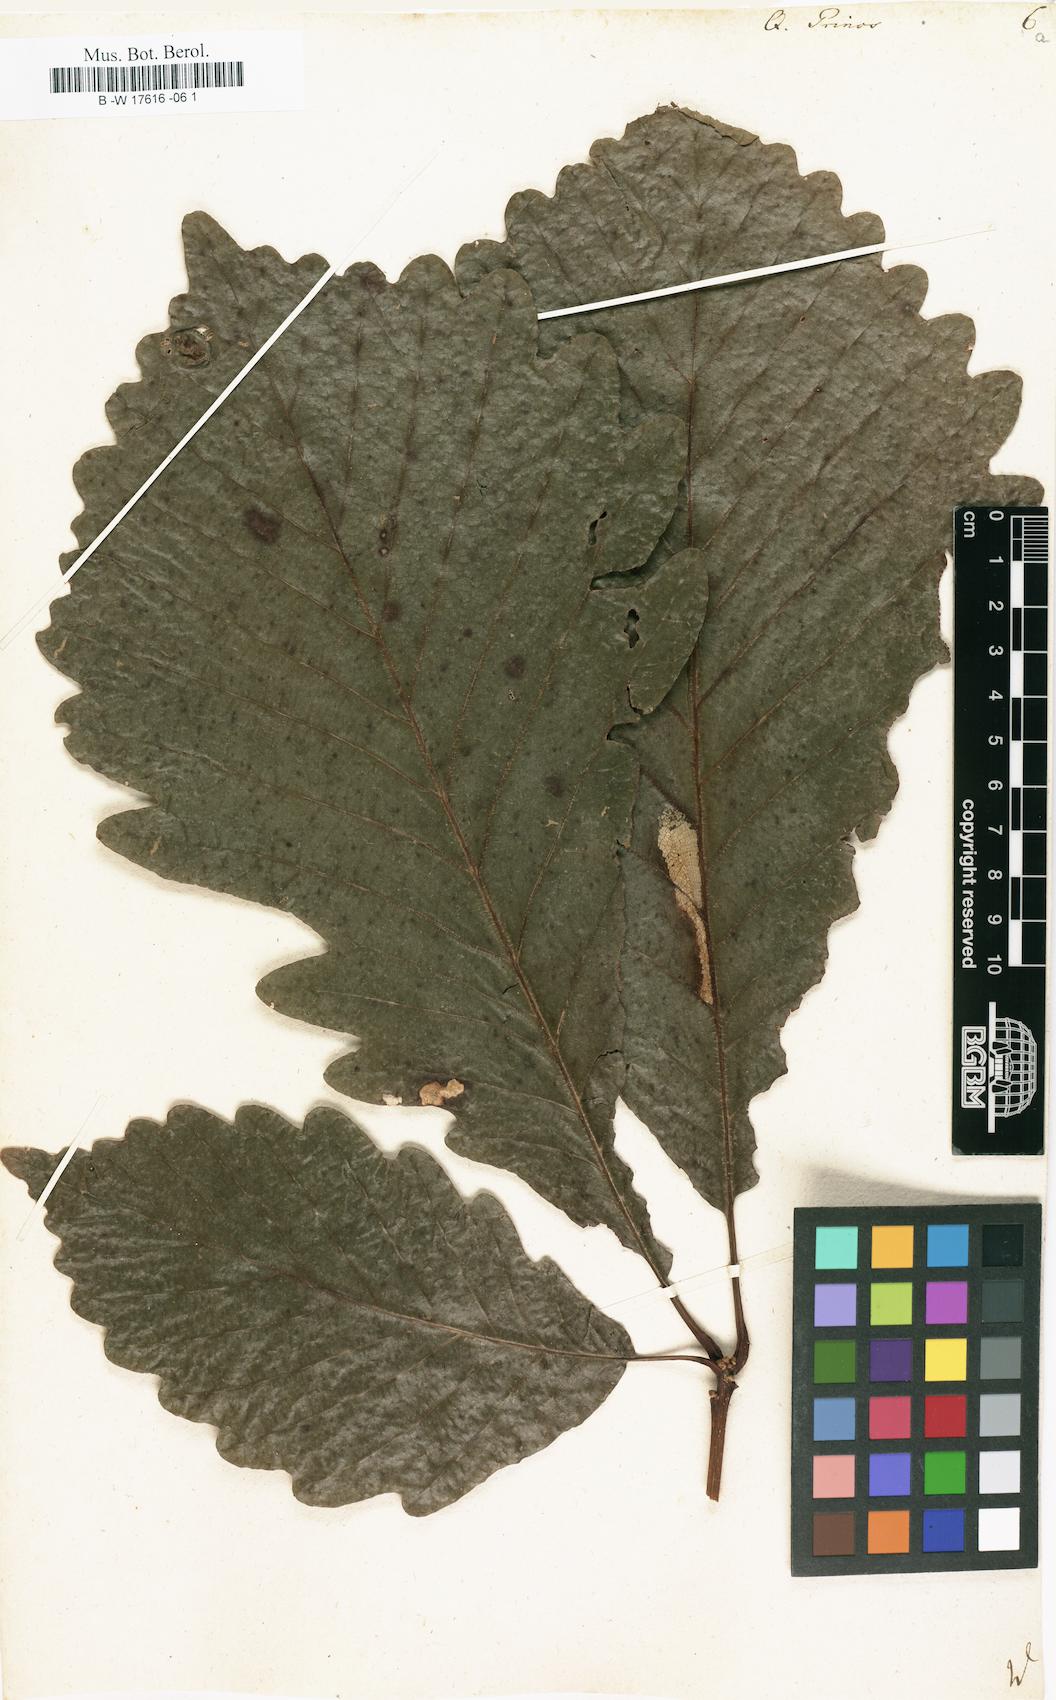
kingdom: Plantae
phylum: Tracheophyta
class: Magnoliopsida
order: Fagales
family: Fagaceae
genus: Quercus
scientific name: Quercus michauxii
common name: Swamp chestnut oak
